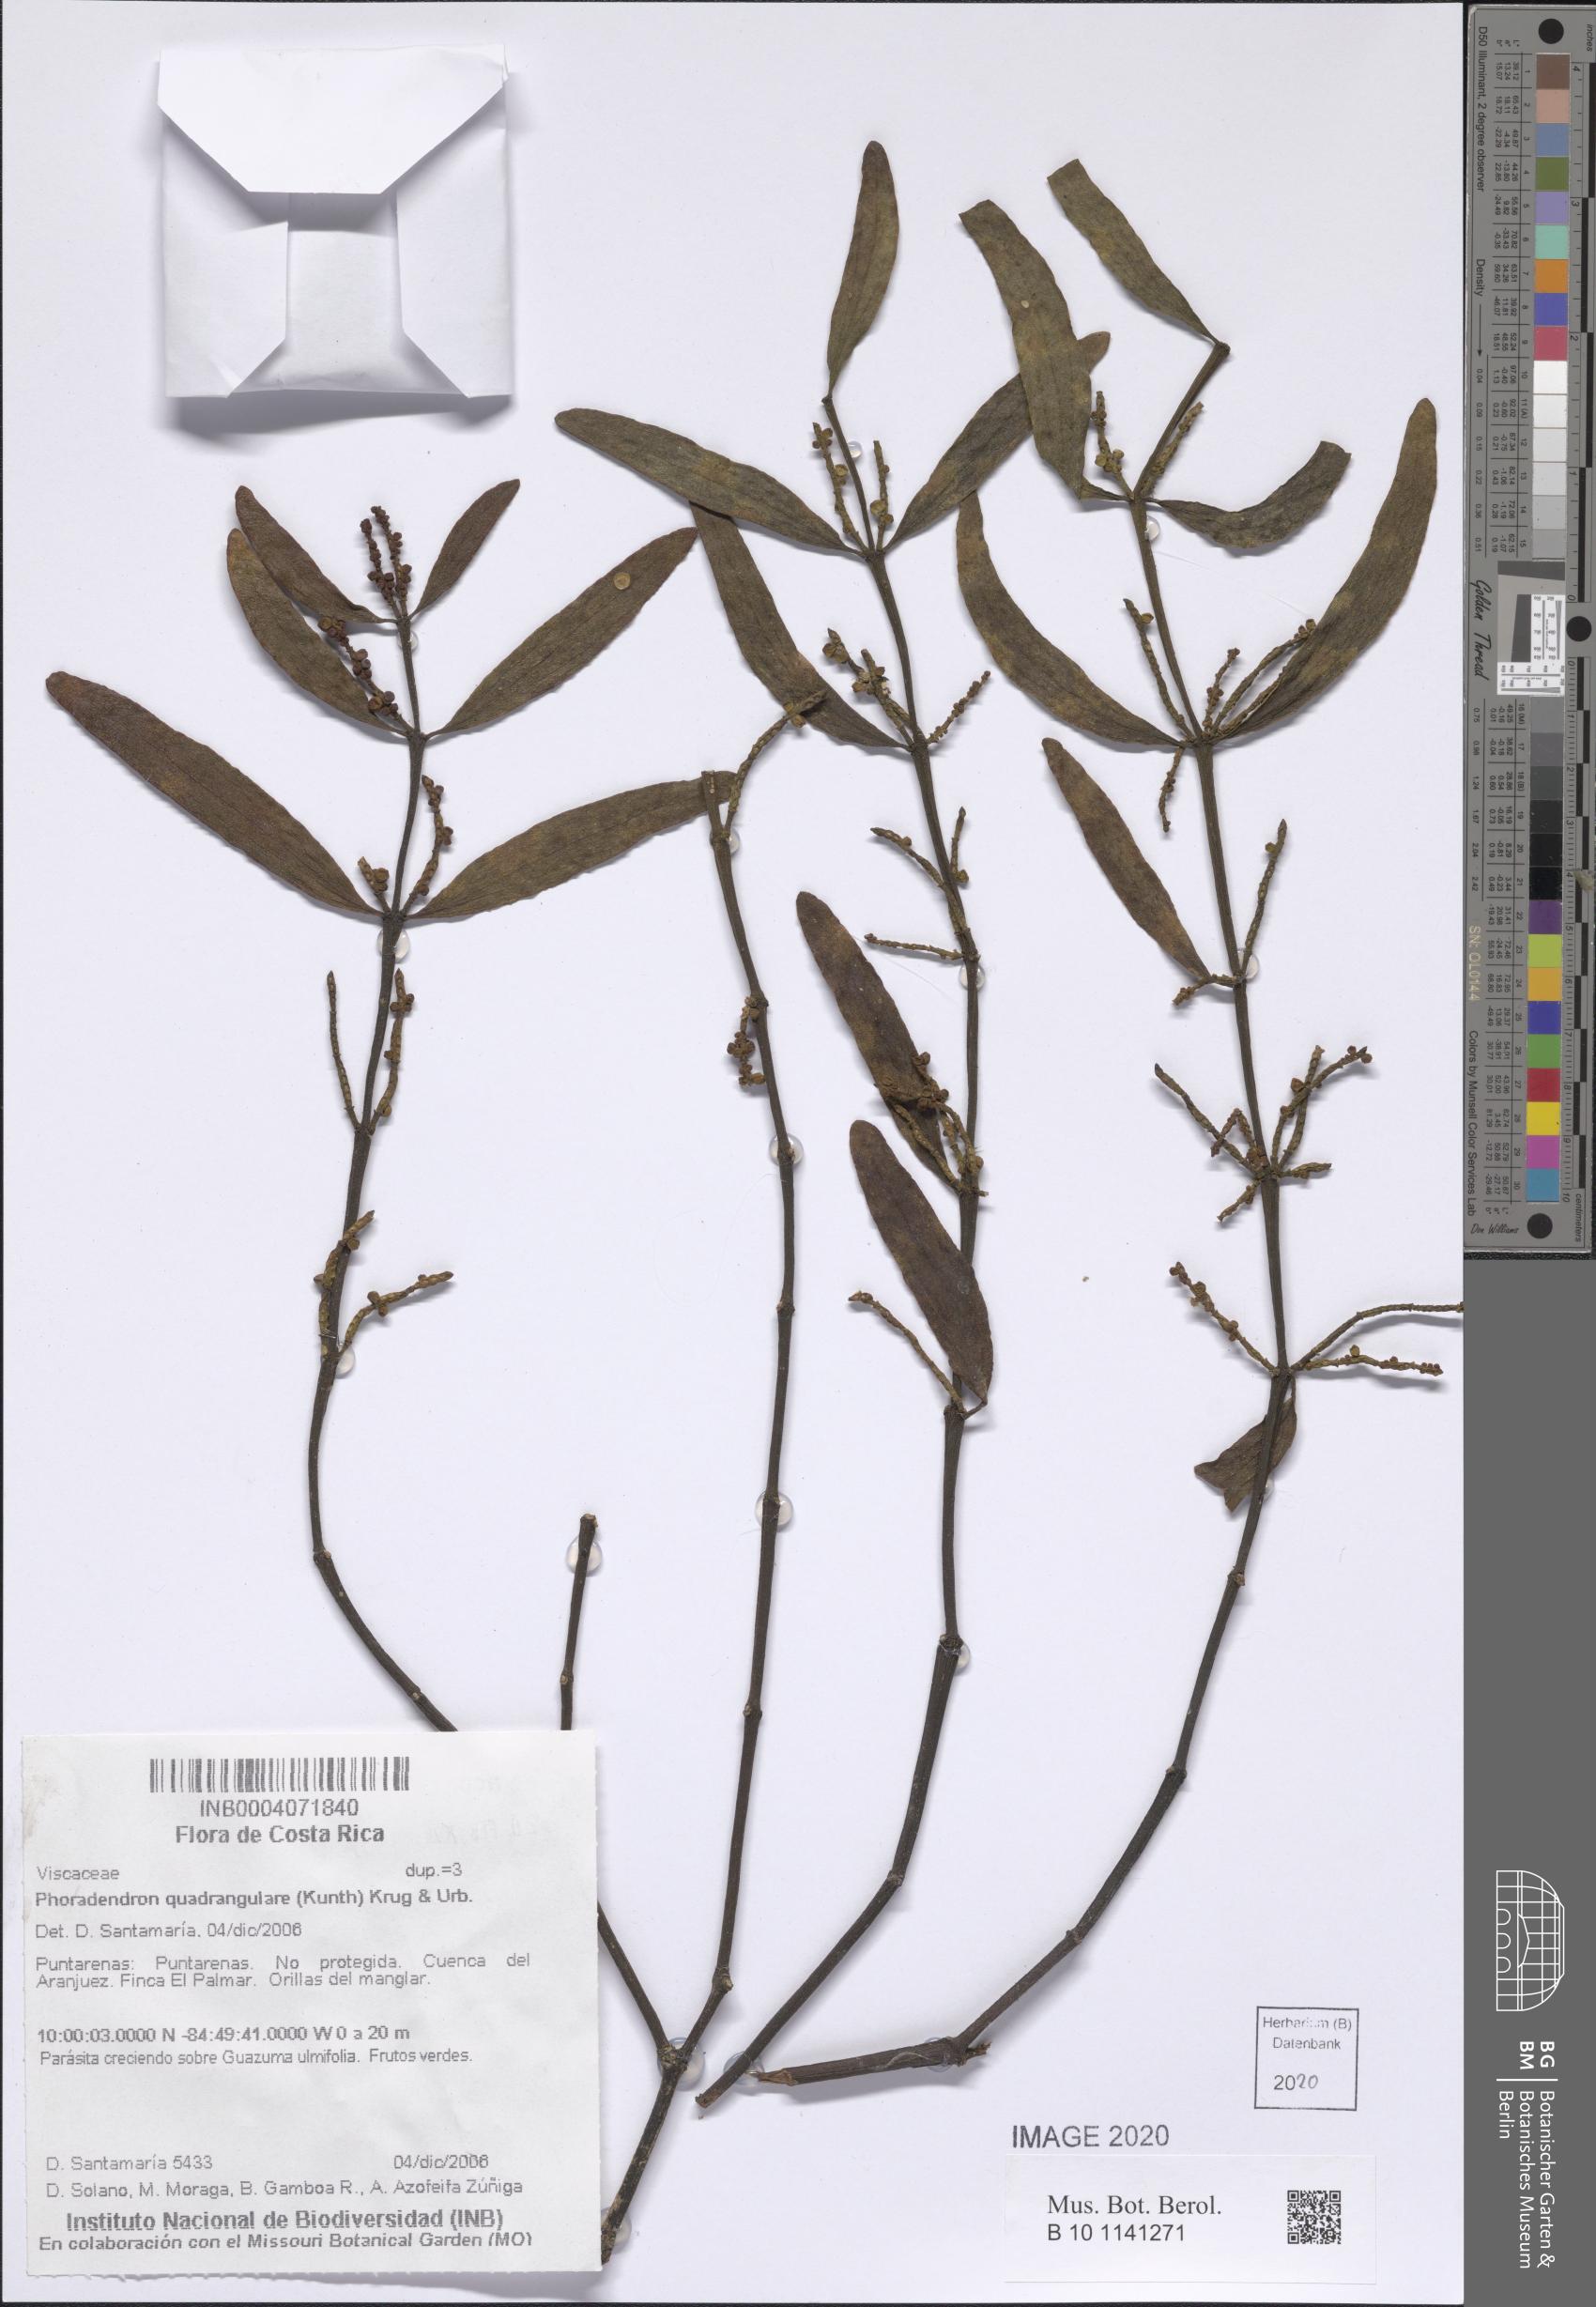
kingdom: Plantae
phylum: Tracheophyta
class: Magnoliopsida
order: Santalales
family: Viscaceae
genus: Phoradendron
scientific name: Phoradendron quadrangulare
